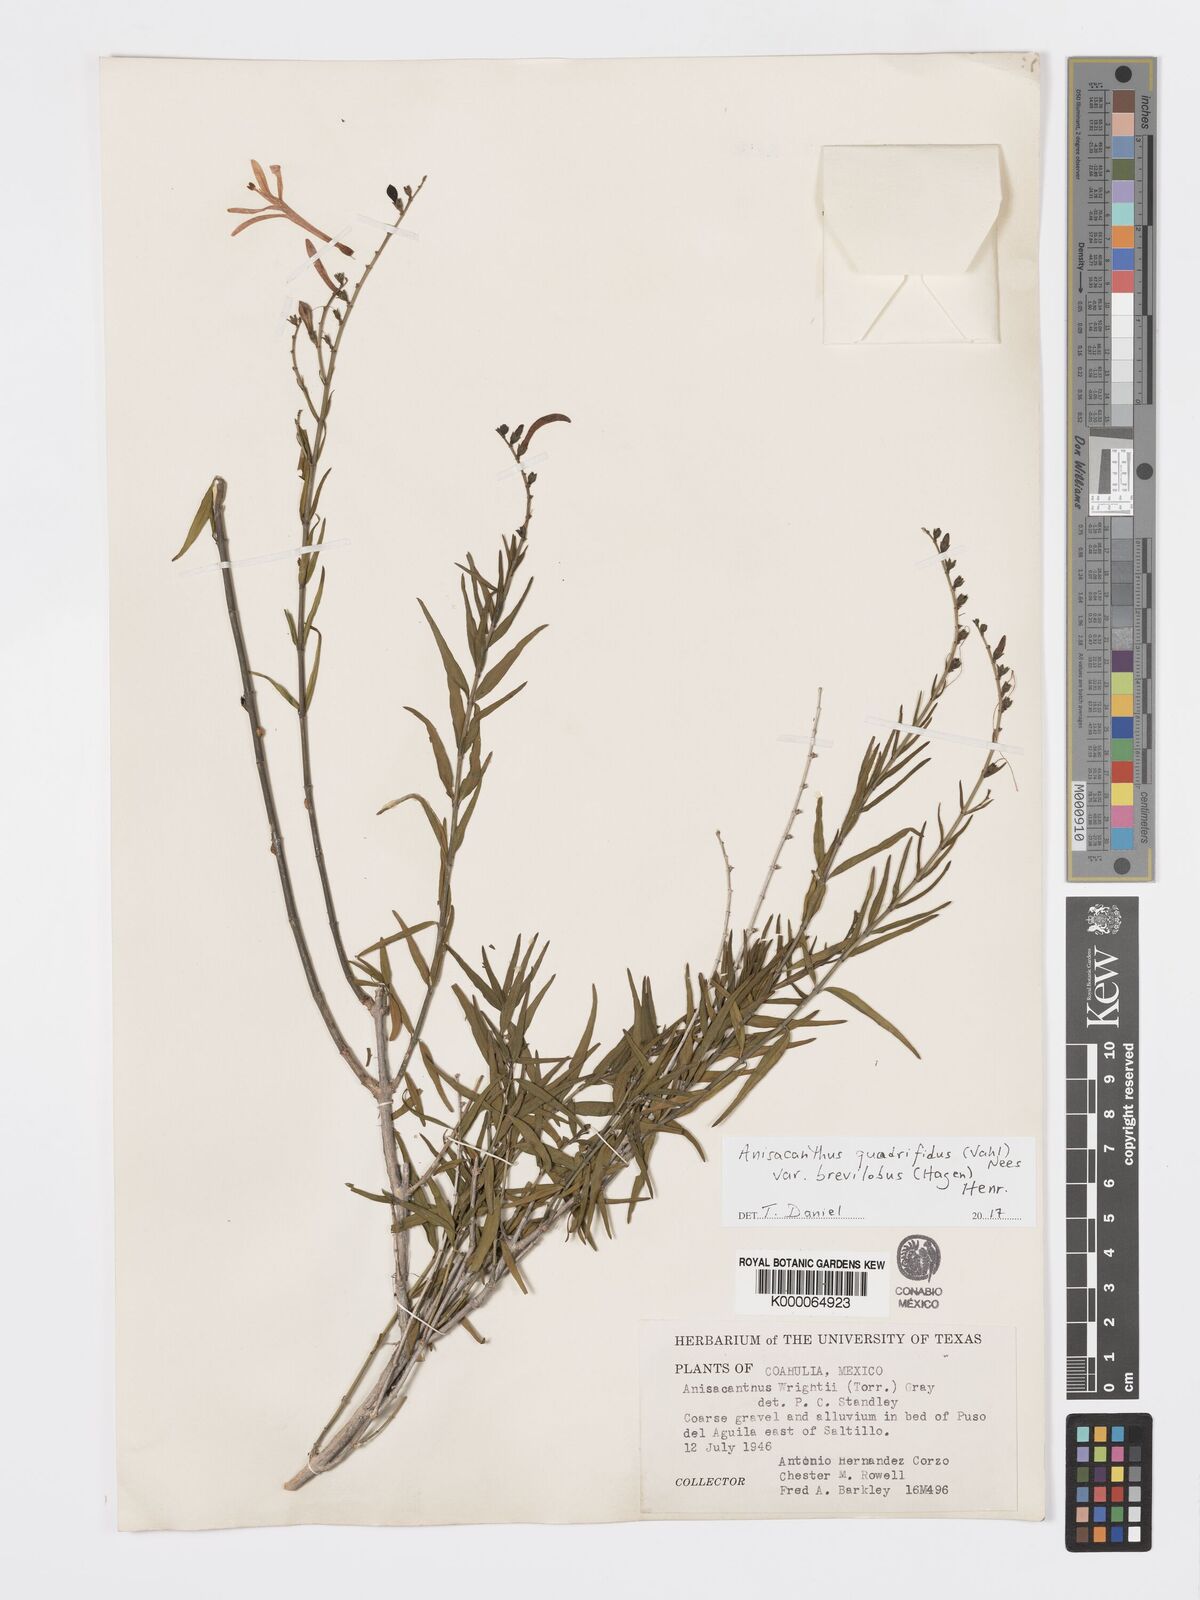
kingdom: Plantae
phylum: Tracheophyta
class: Magnoliopsida
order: Lamiales
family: Acanthaceae
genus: Anisacanthus
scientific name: Anisacanthus quadrifidus
